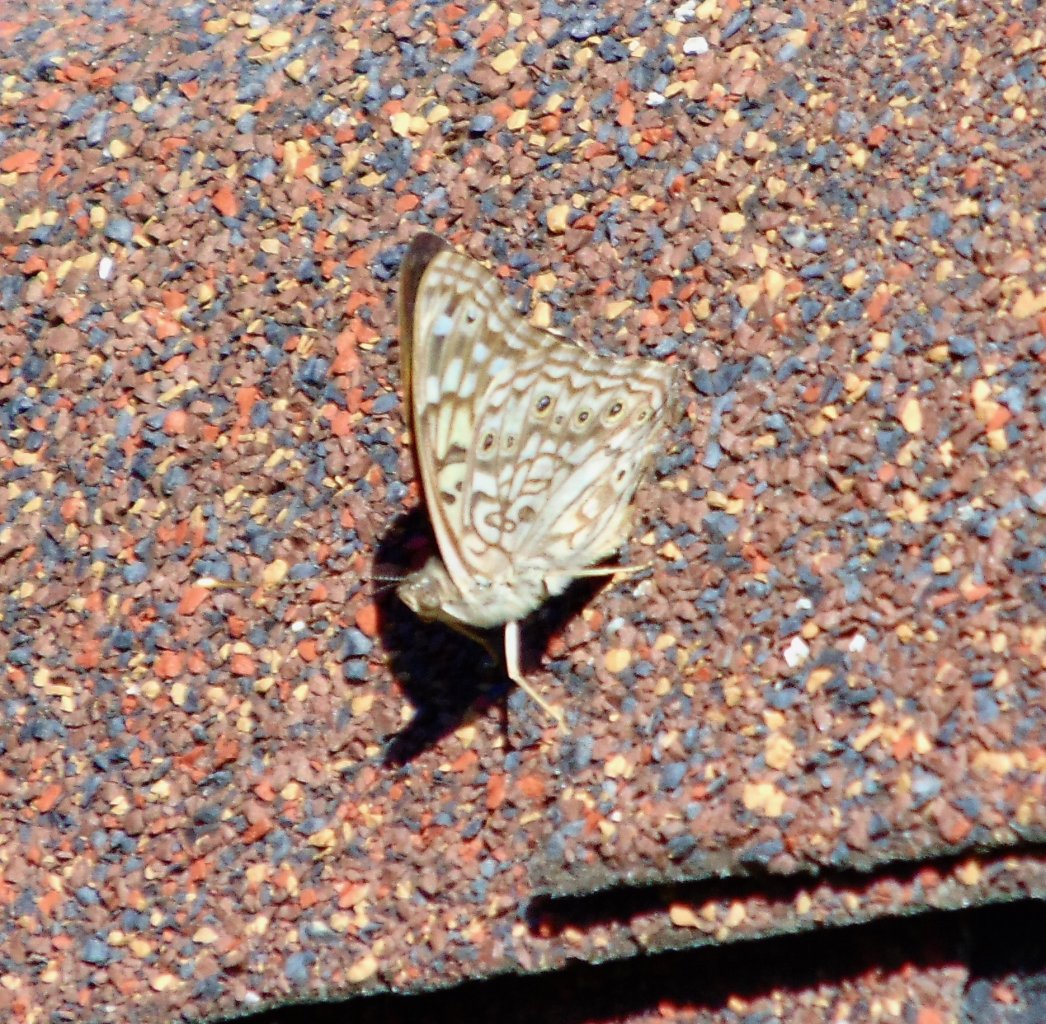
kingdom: Animalia
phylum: Arthropoda
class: Insecta
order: Lepidoptera
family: Nymphalidae
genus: Asterocampa
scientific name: Asterocampa celtis
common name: Hackberry Emperor
